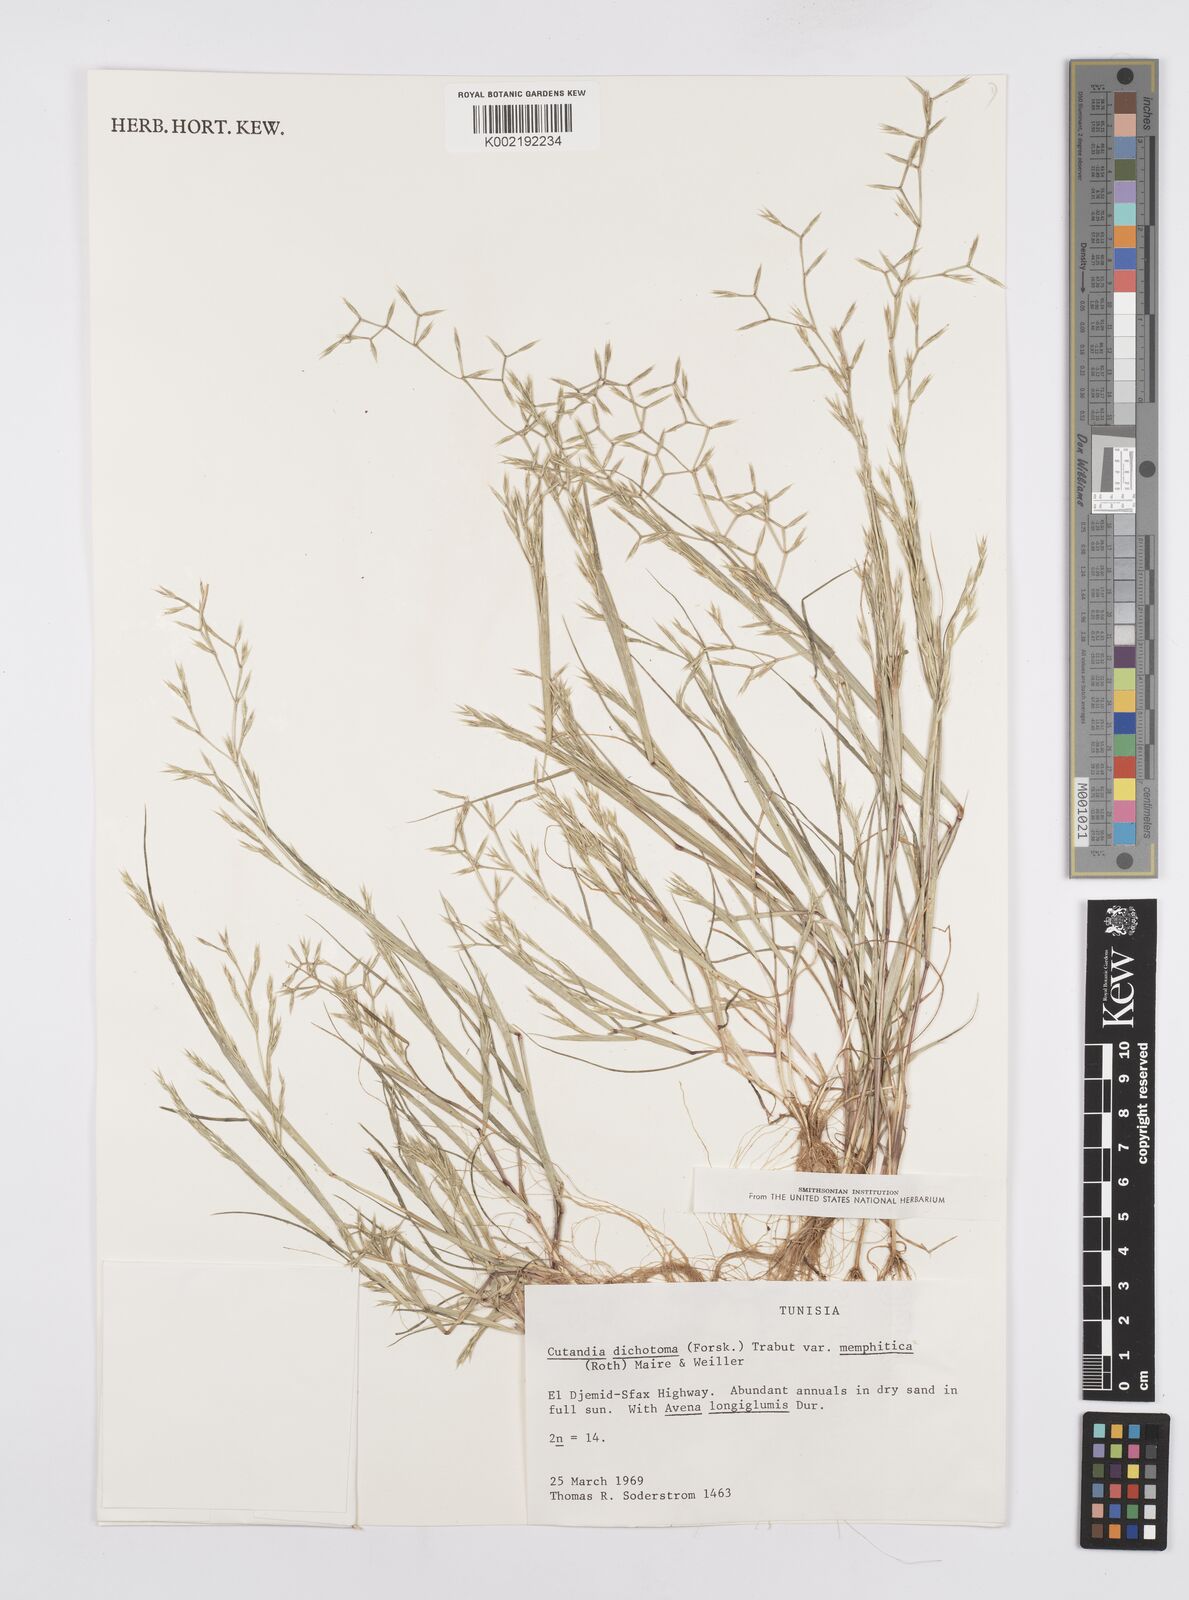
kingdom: Plantae
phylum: Tracheophyta
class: Liliopsida
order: Poales
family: Poaceae
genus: Cutandia
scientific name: Cutandia memphitica
